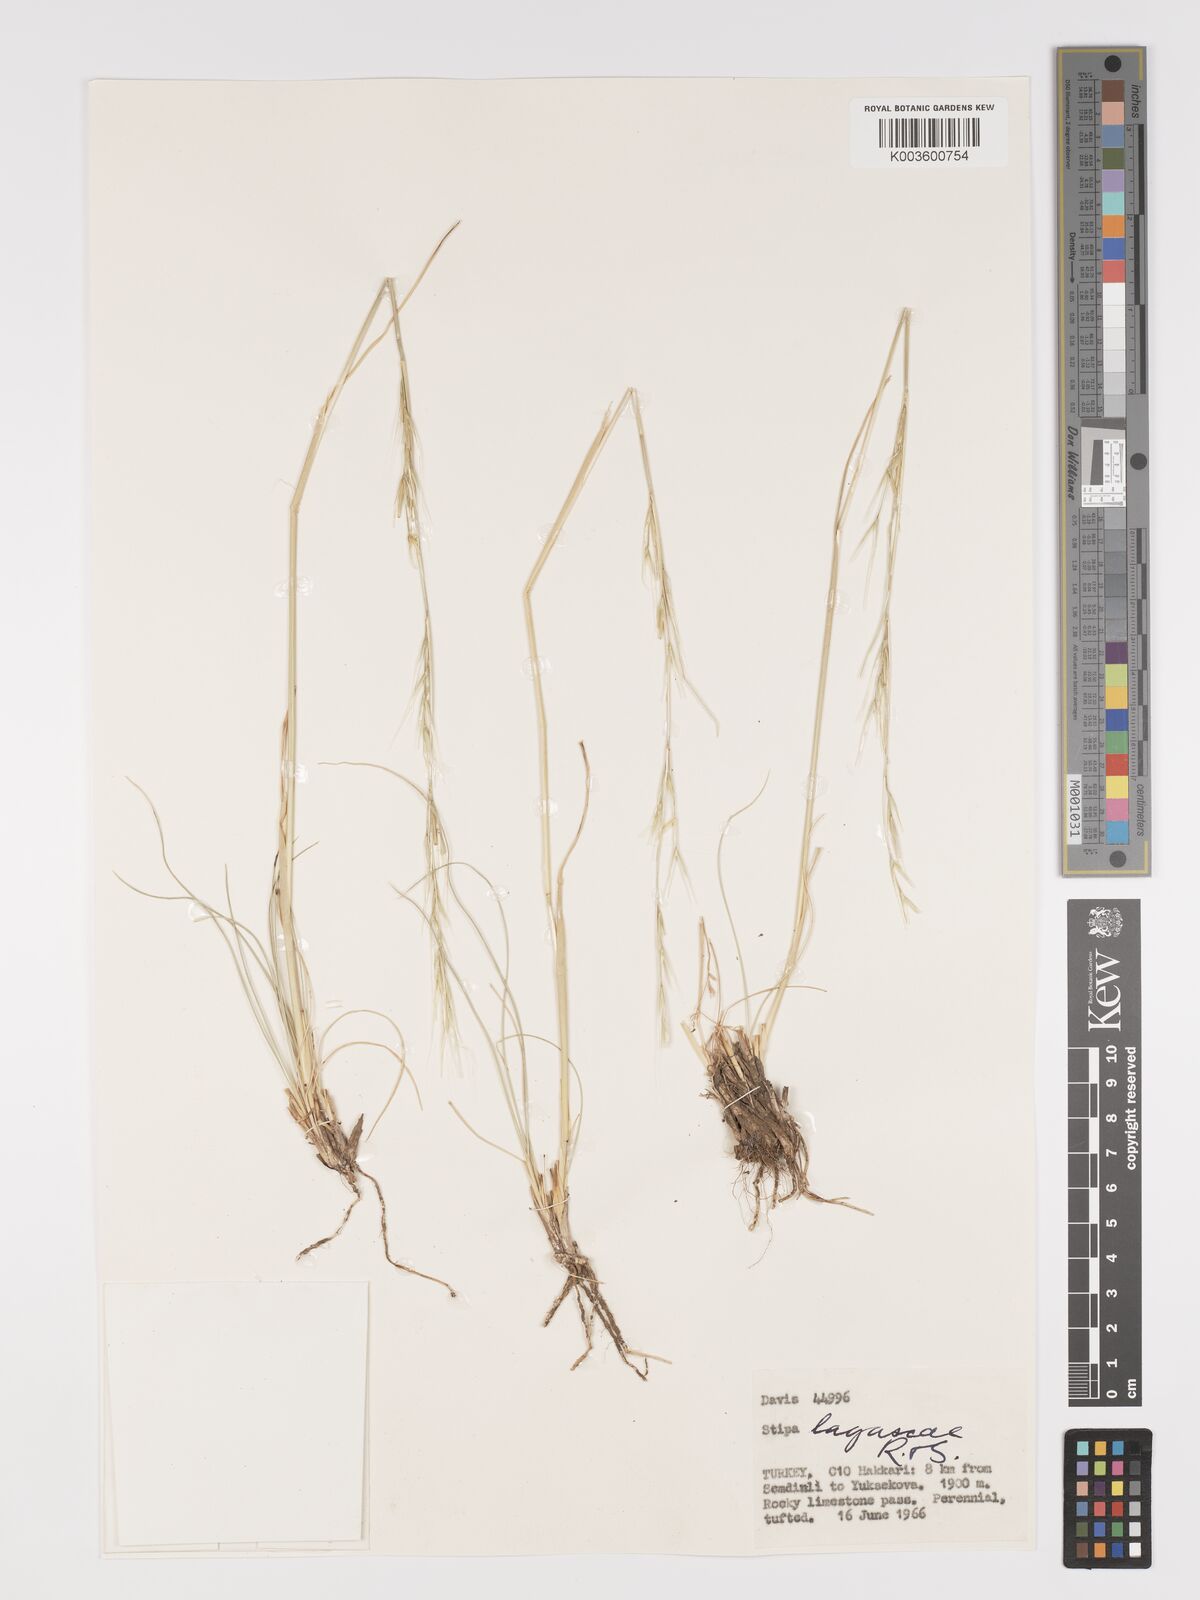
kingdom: Plantae
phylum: Tracheophyta
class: Liliopsida
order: Poales
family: Poaceae
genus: Stipa
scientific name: Stipa lagascae
